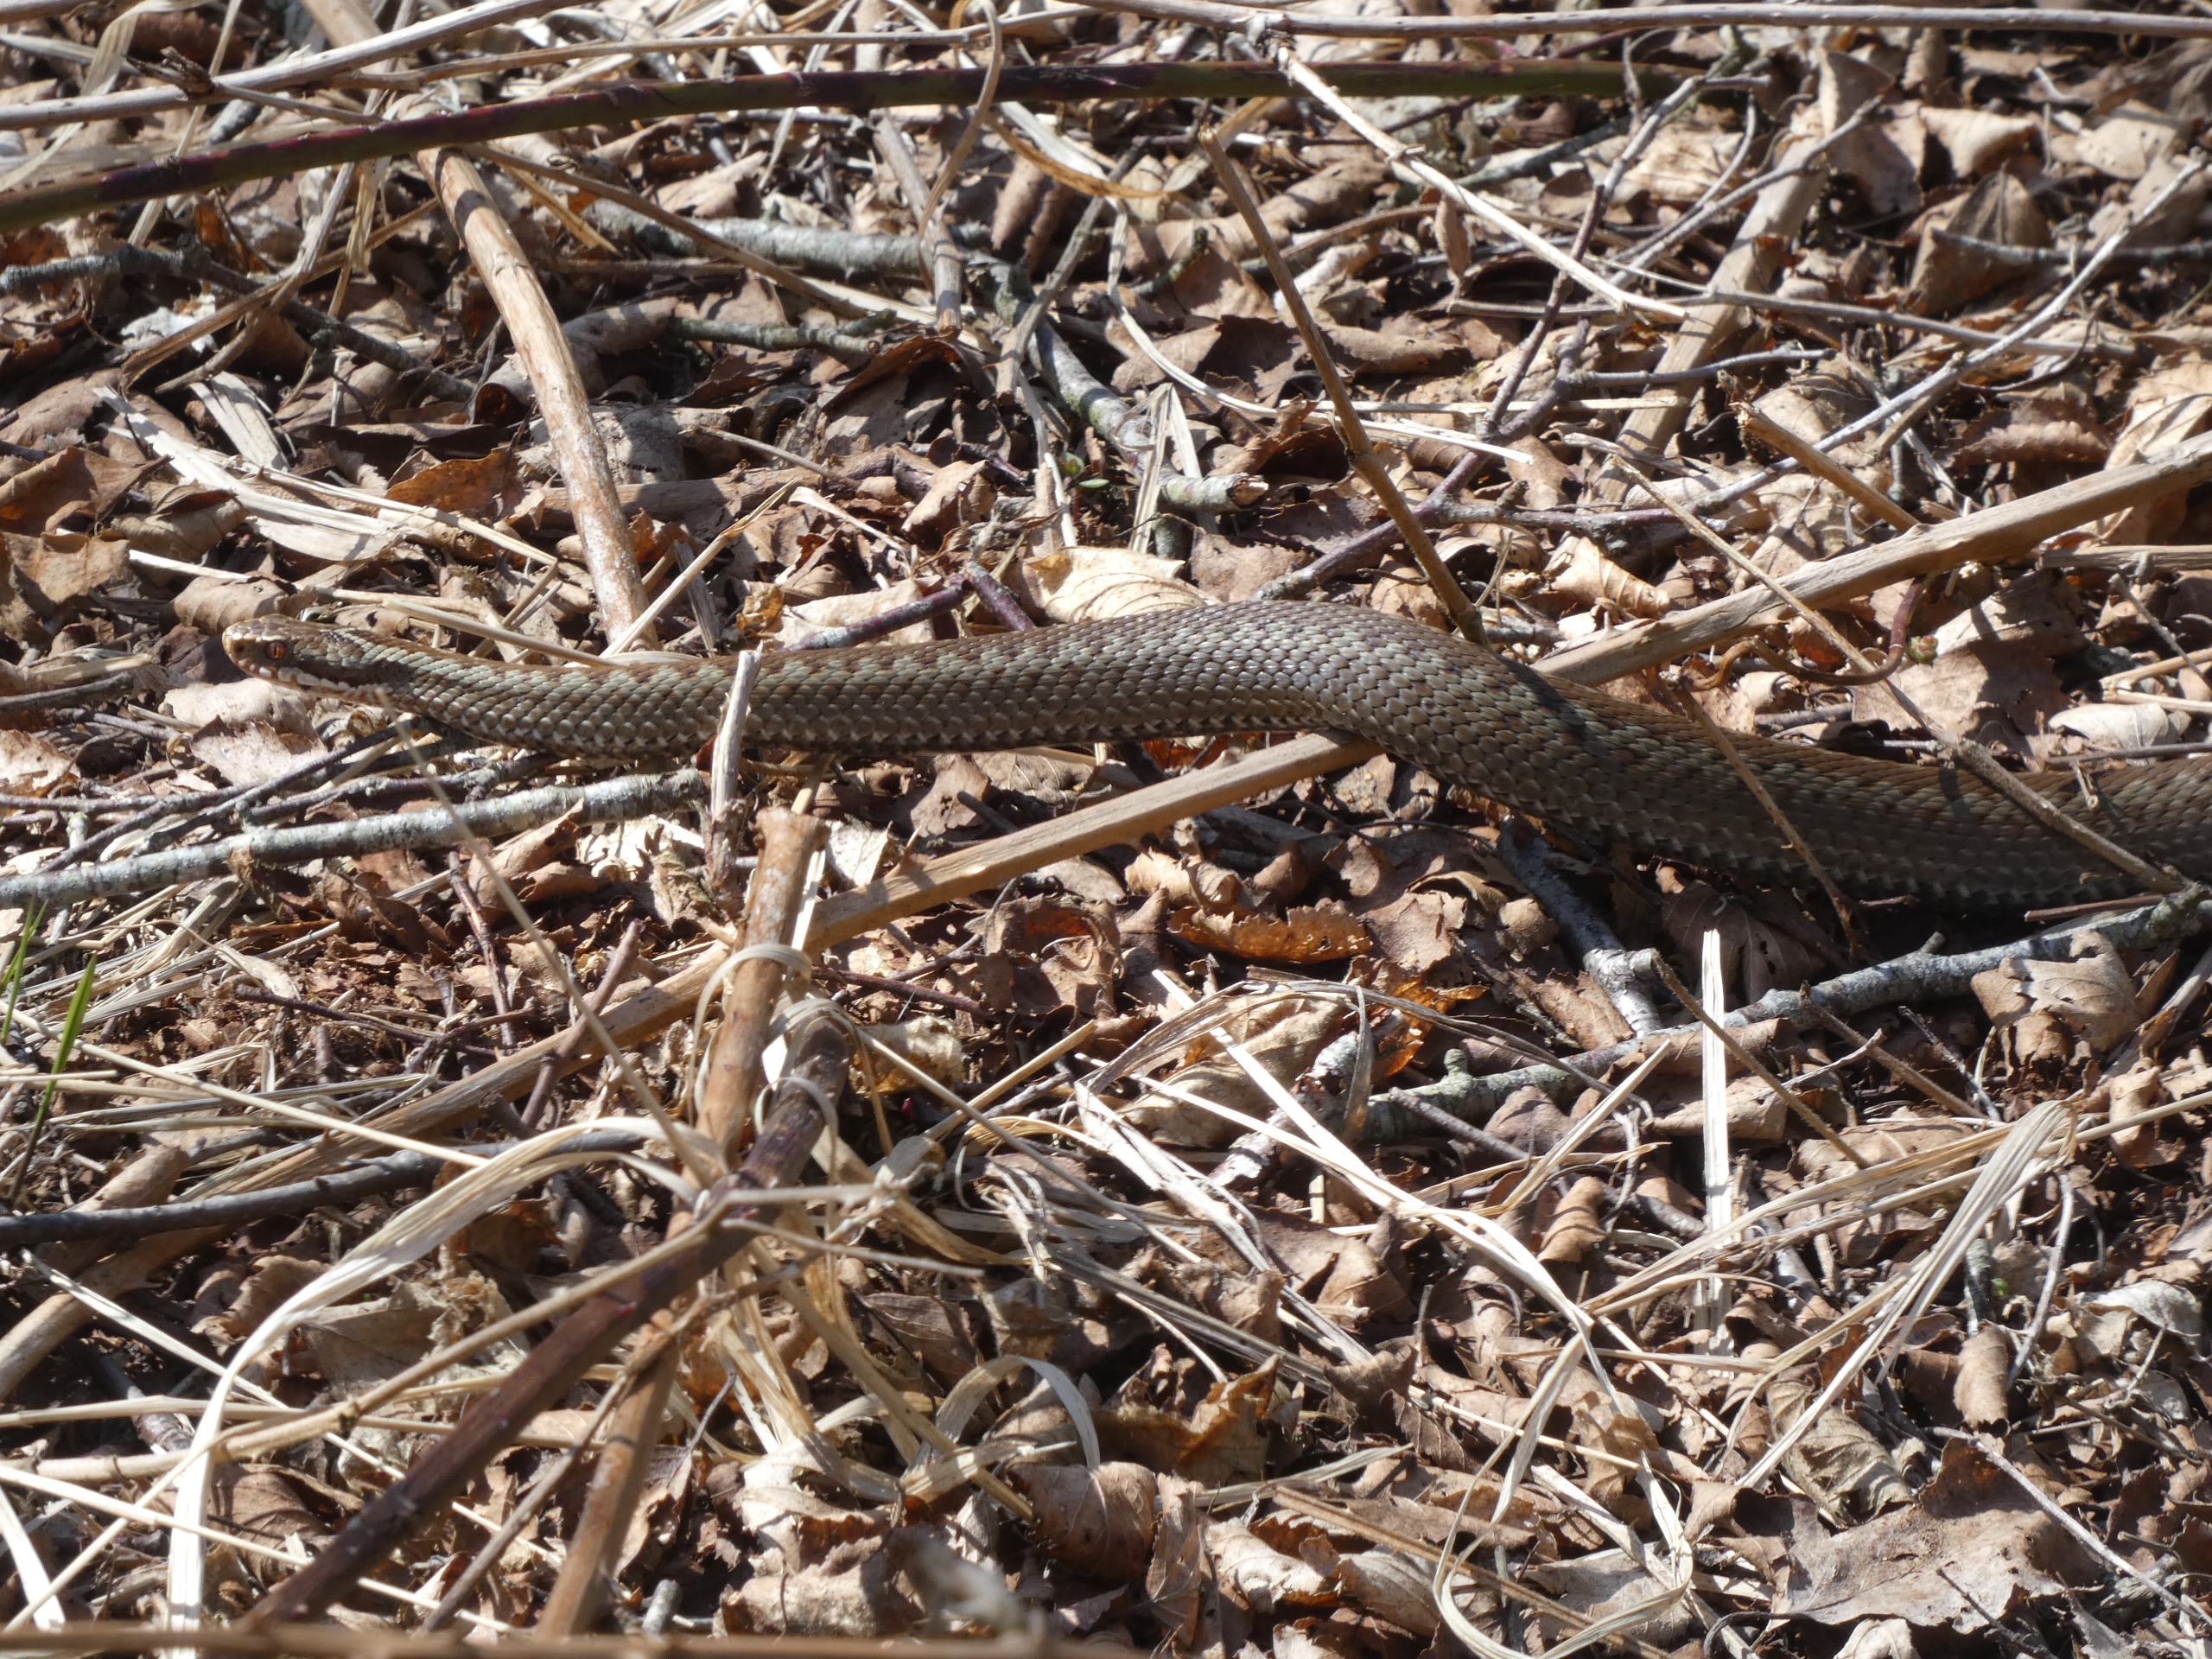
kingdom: Animalia
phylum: Chordata
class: Squamata
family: Viperidae
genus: Vipera
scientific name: Vipera berus
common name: Hugorm
